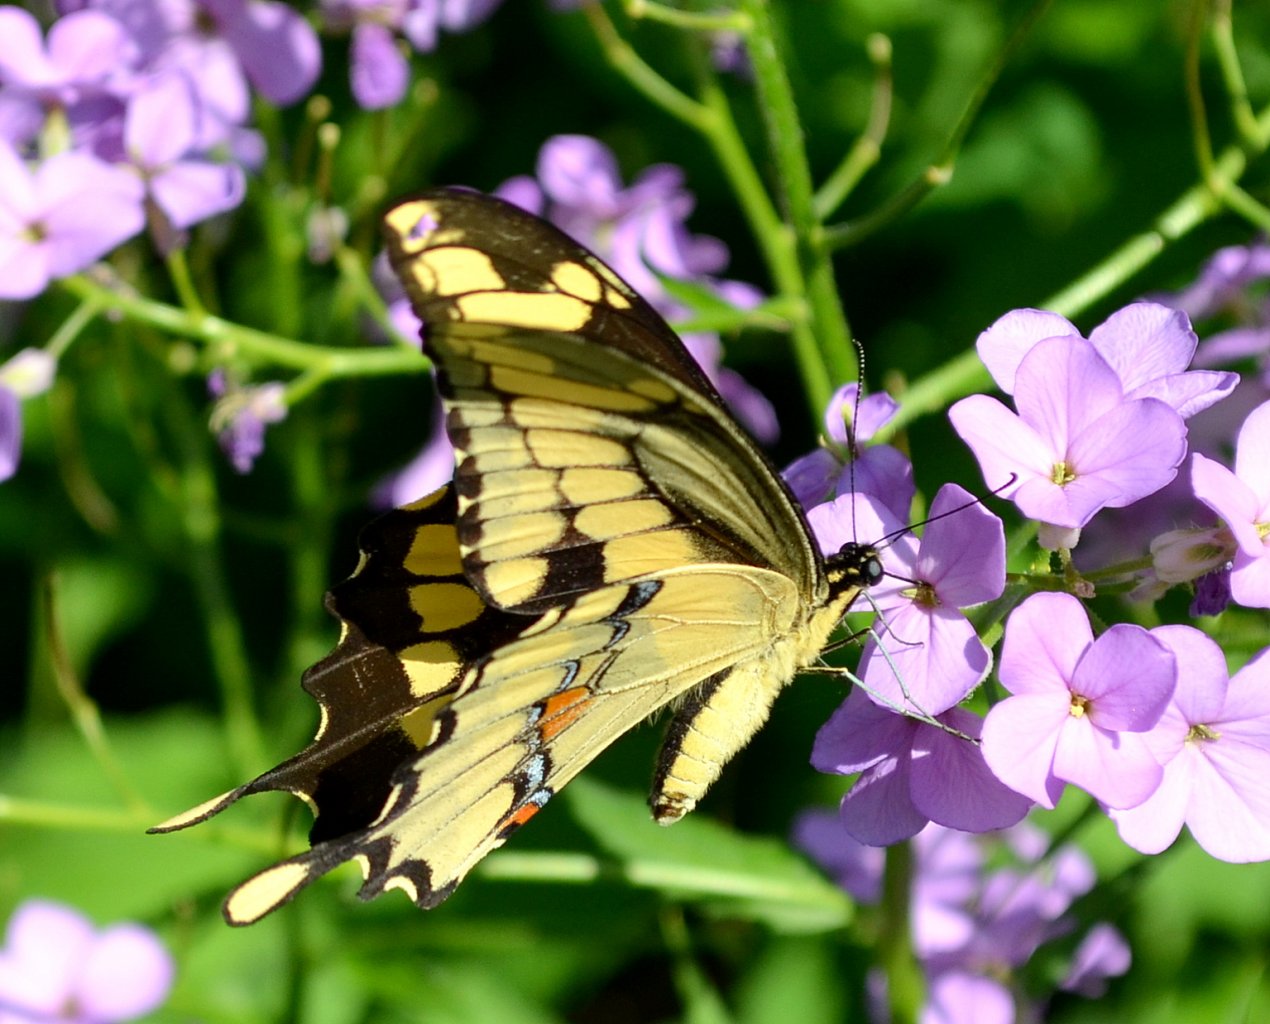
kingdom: Animalia
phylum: Arthropoda
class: Insecta
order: Lepidoptera
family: Papilionidae
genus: Papilio
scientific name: Papilio cresphontes
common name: Eastern Giant Swallowtail
